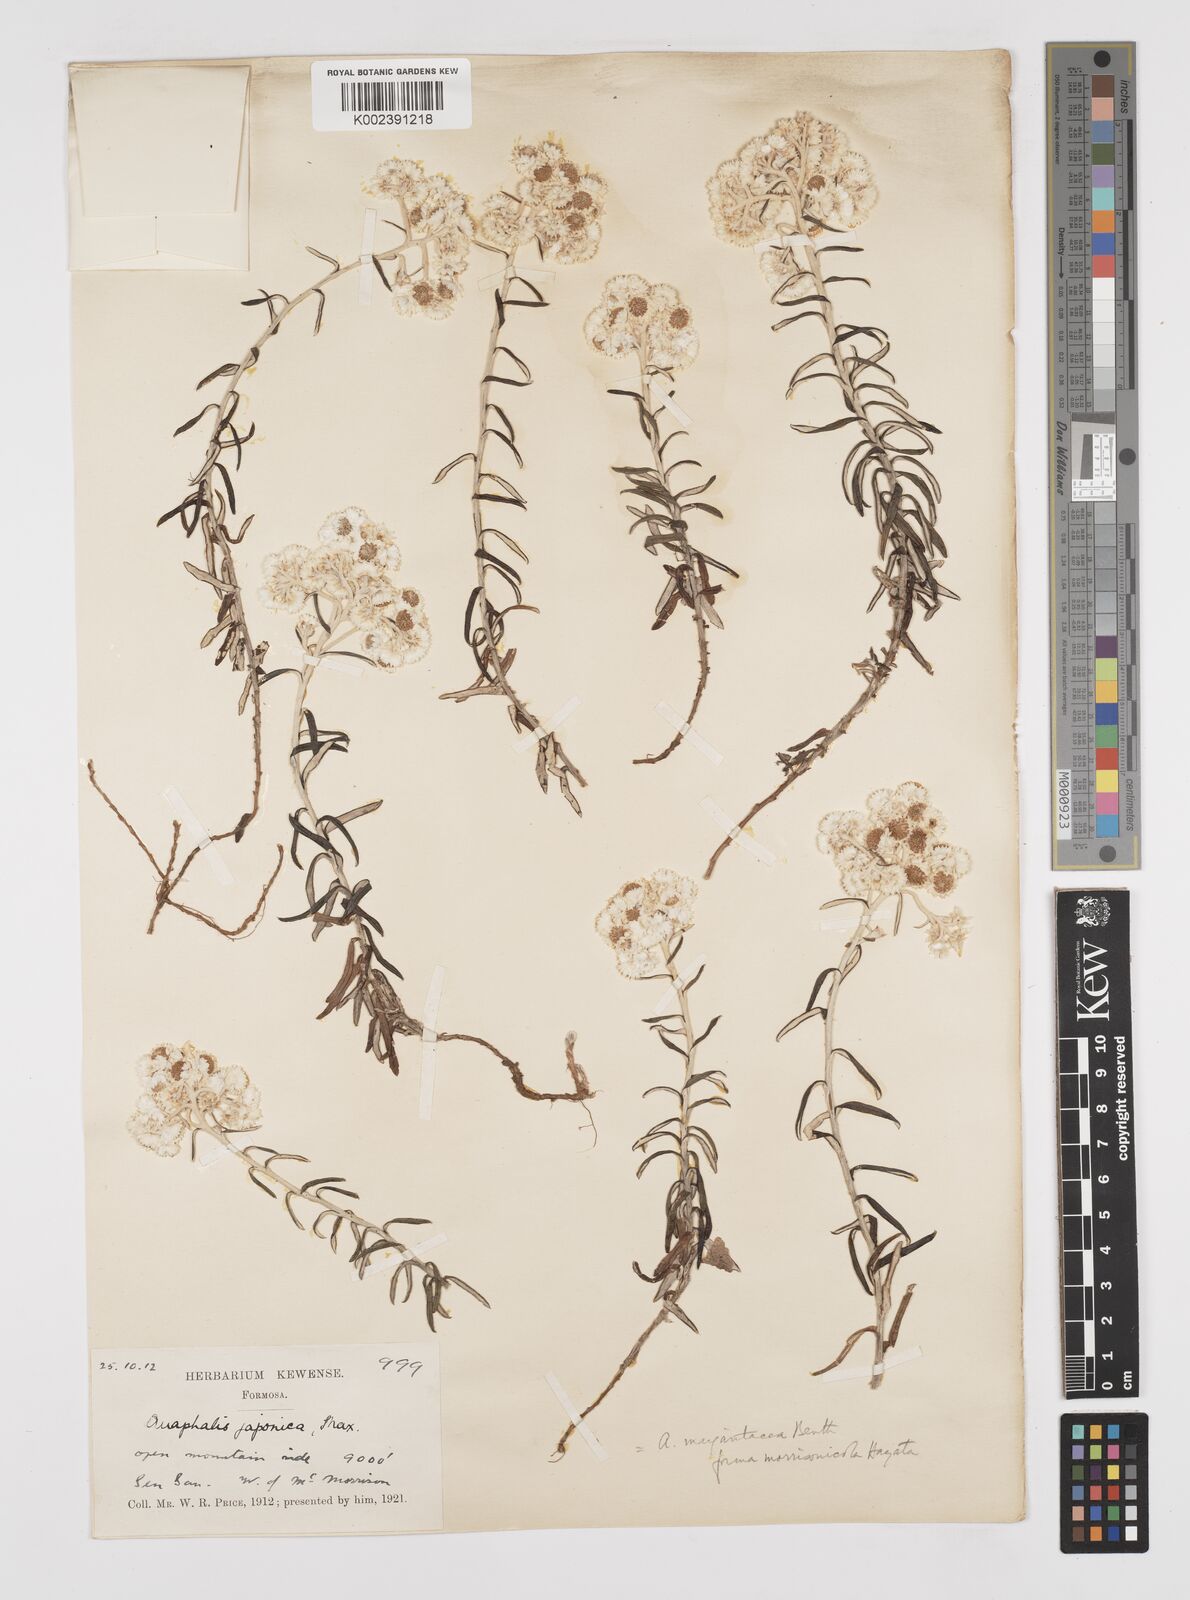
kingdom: Plantae
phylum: Tracheophyta
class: Magnoliopsida
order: Asterales
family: Asteraceae
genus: Anaphalis
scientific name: Anaphalis morrisonicola
